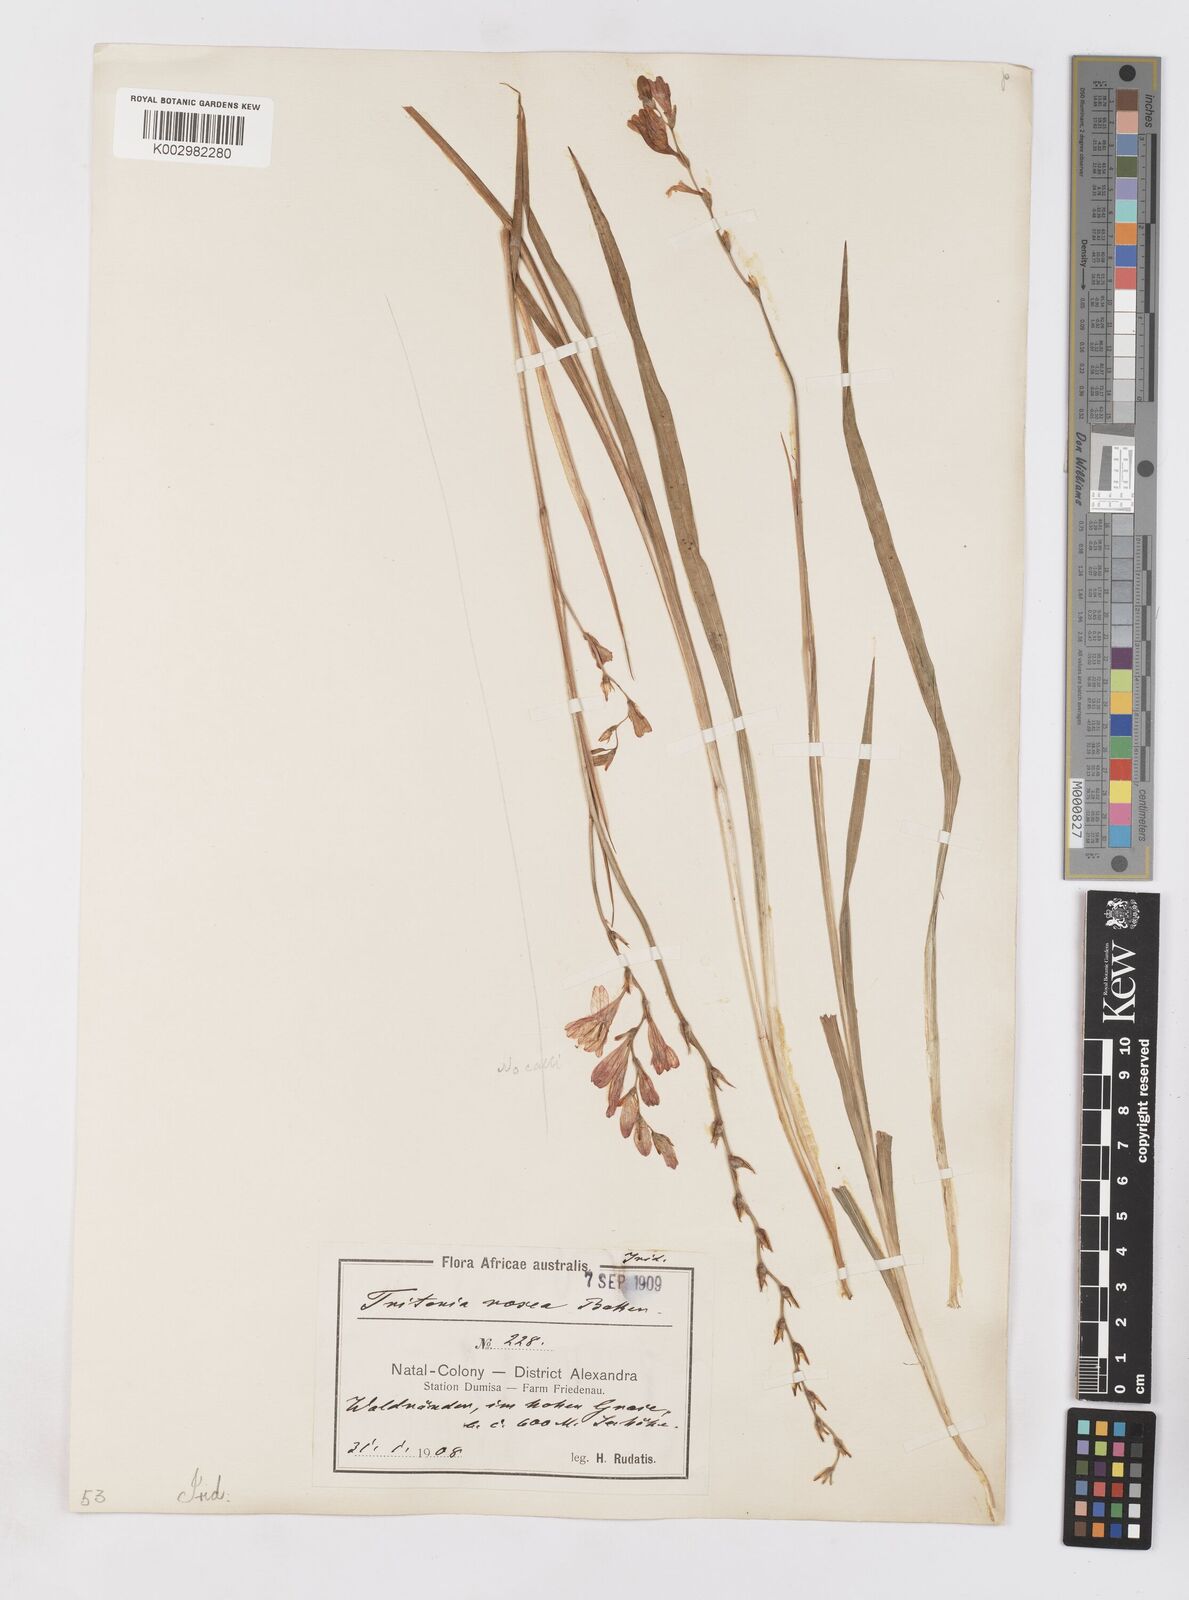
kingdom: Plantae
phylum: Tracheophyta
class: Liliopsida
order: Asparagales
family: Iridaceae
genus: Tritonia
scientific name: Tritonia disticha
